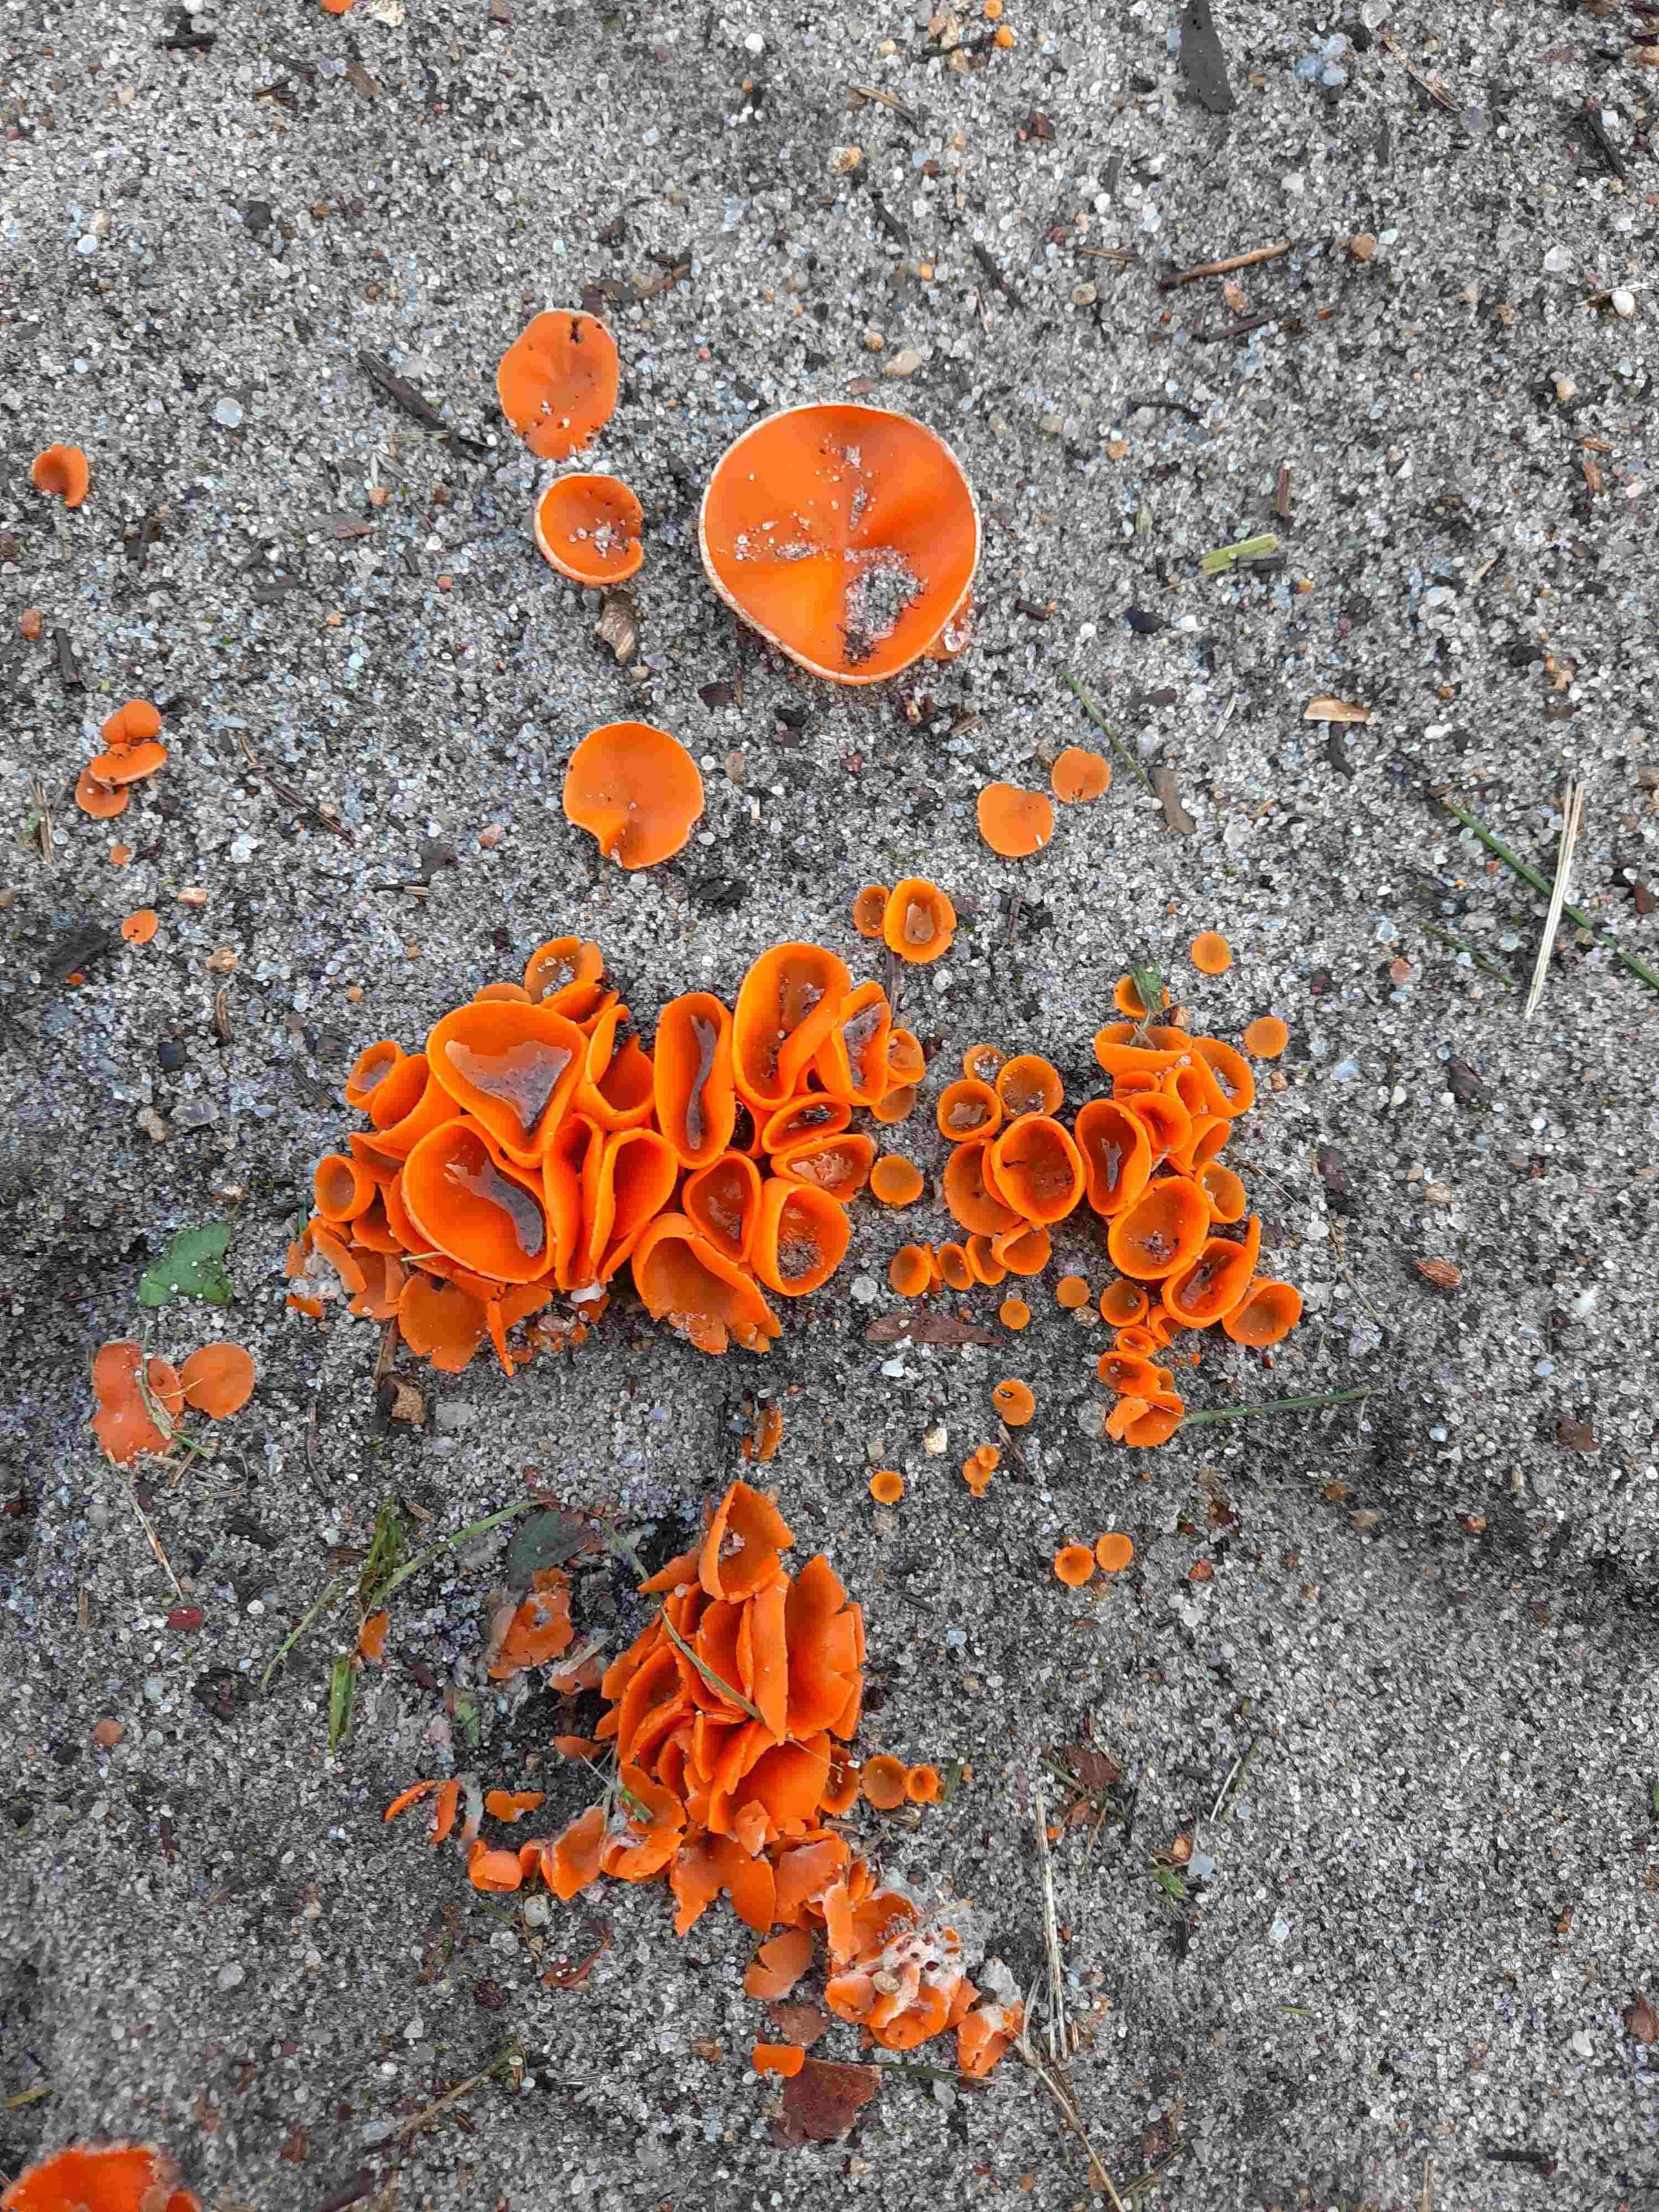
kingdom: Fungi
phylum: Ascomycota
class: Pezizomycetes
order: Pezizales
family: Pyronemataceae
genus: Aleuria
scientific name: Aleuria aurantia
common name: almindelig orangebæger
